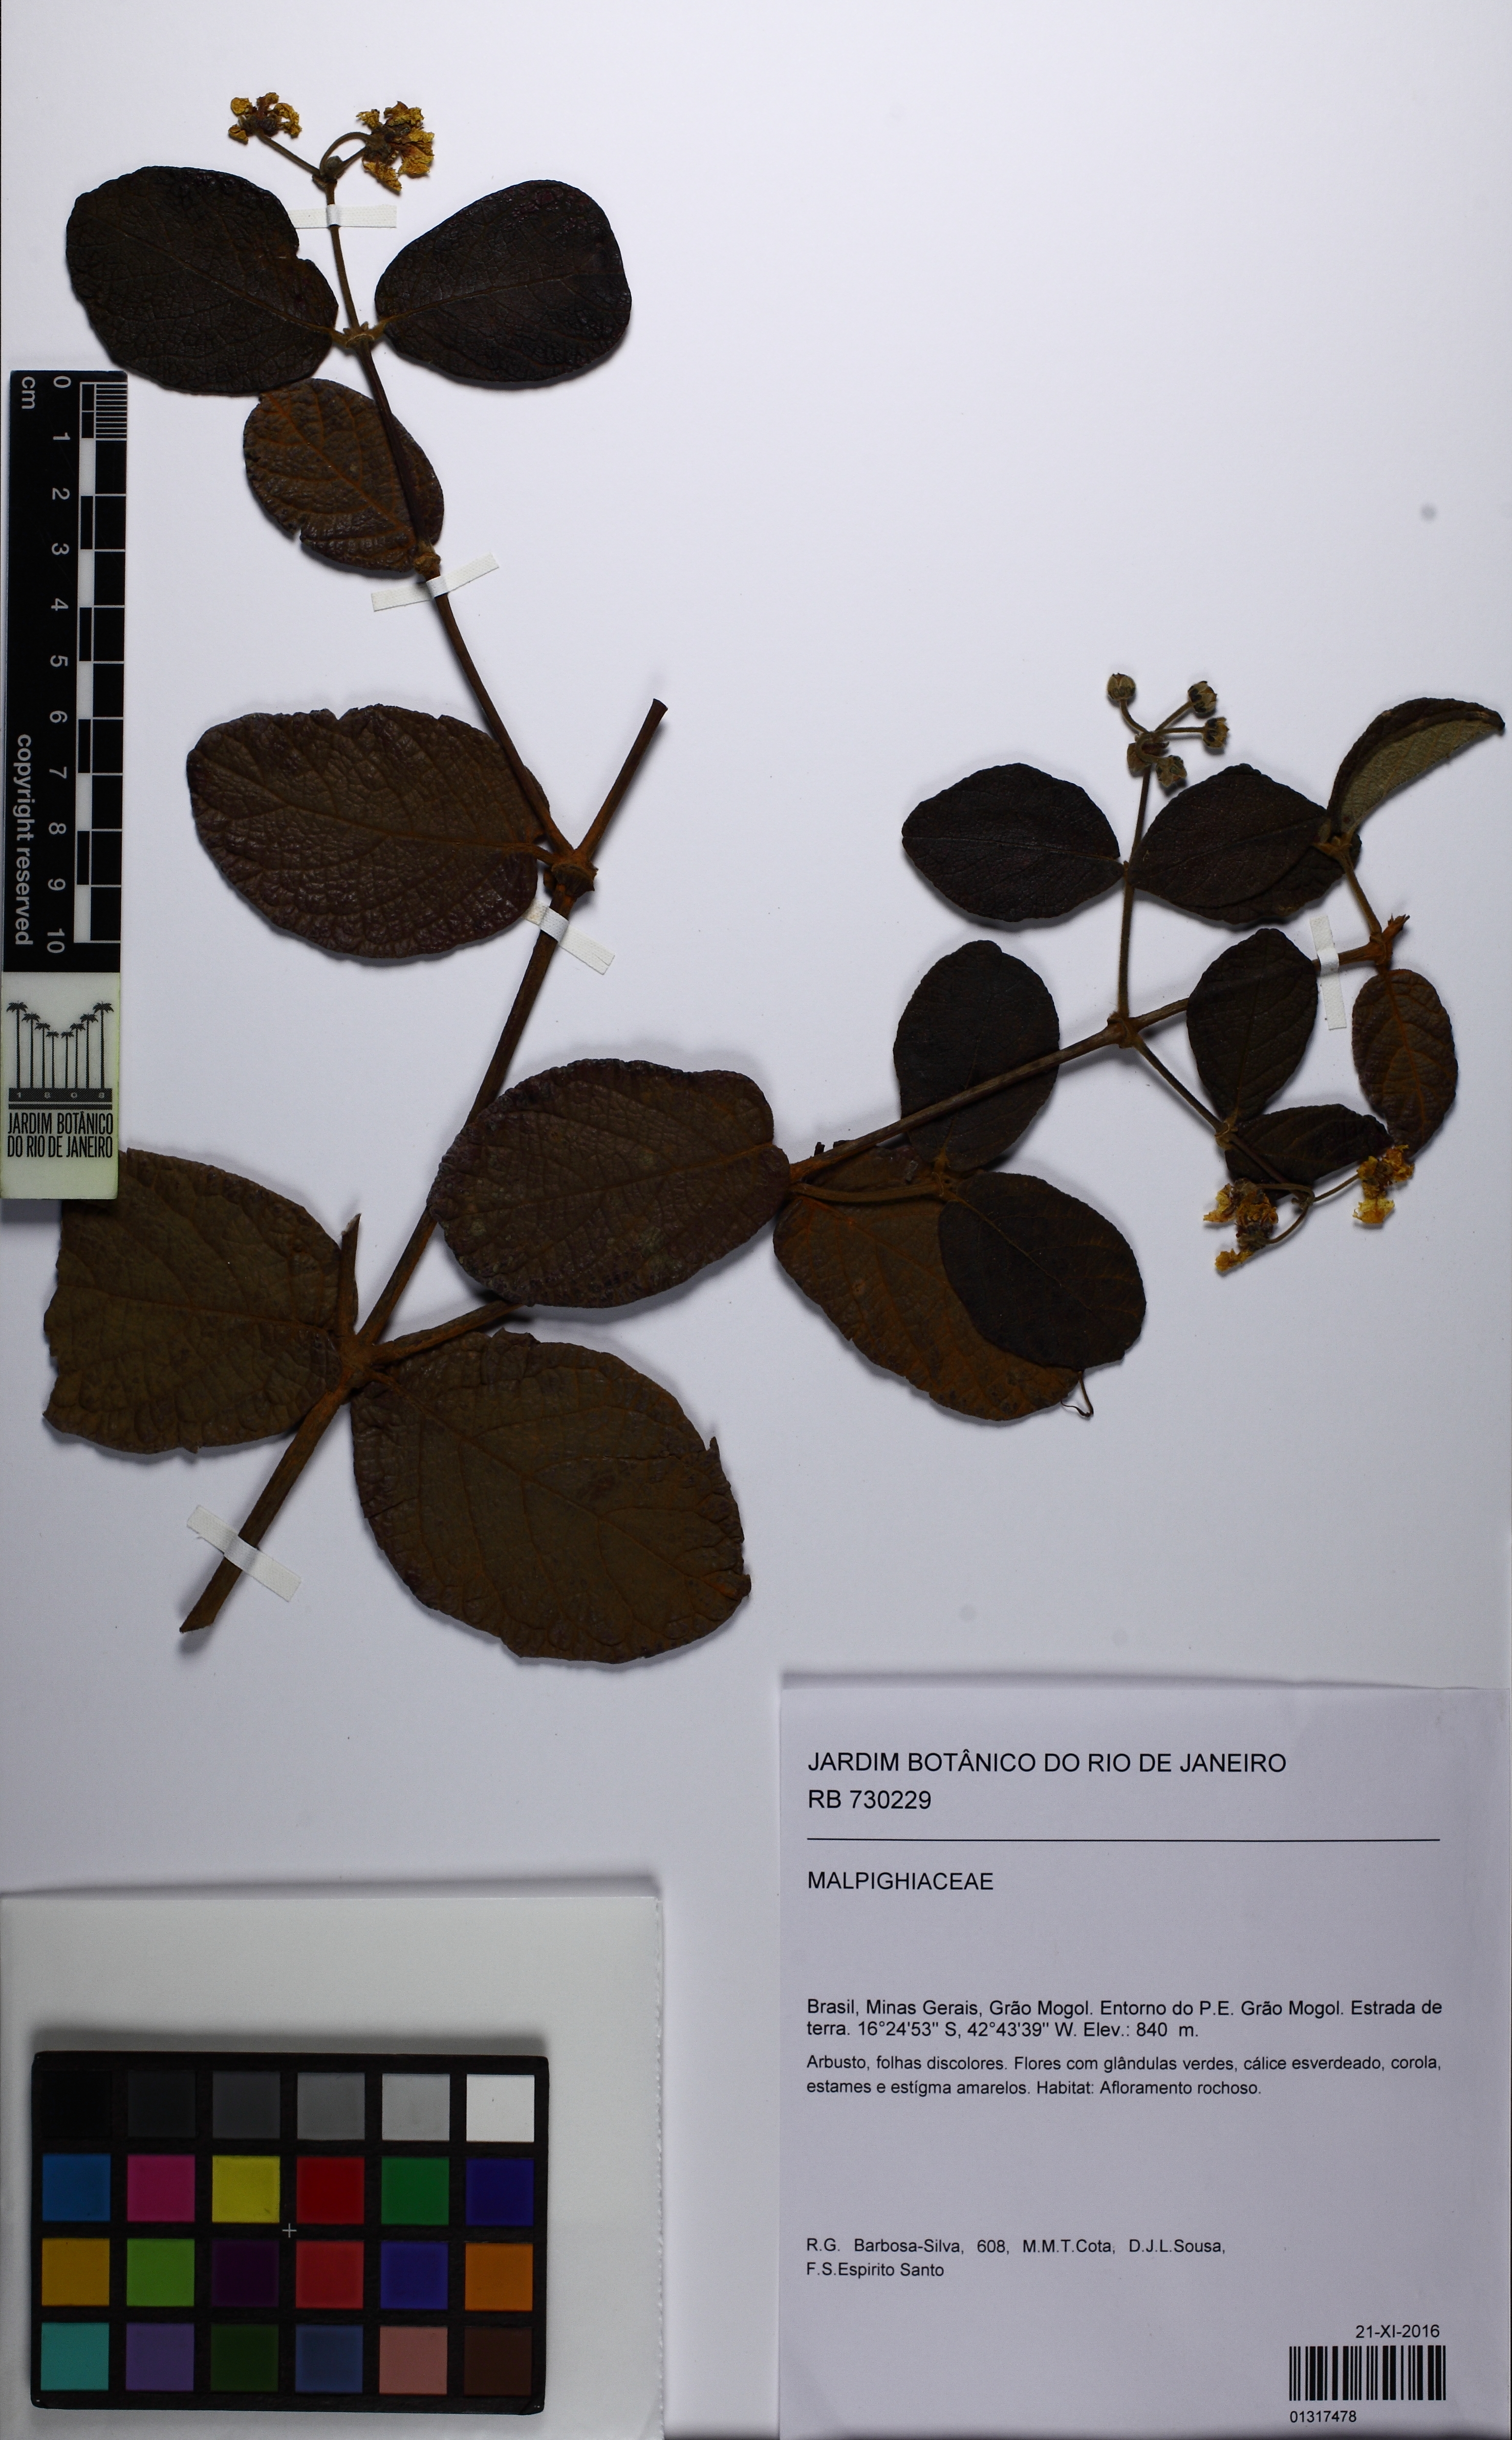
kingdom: Plantae
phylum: Tracheophyta
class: Magnoliopsida
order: Malpighiales
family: Malpighiaceae
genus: Peixotoa
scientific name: Peixotoa
